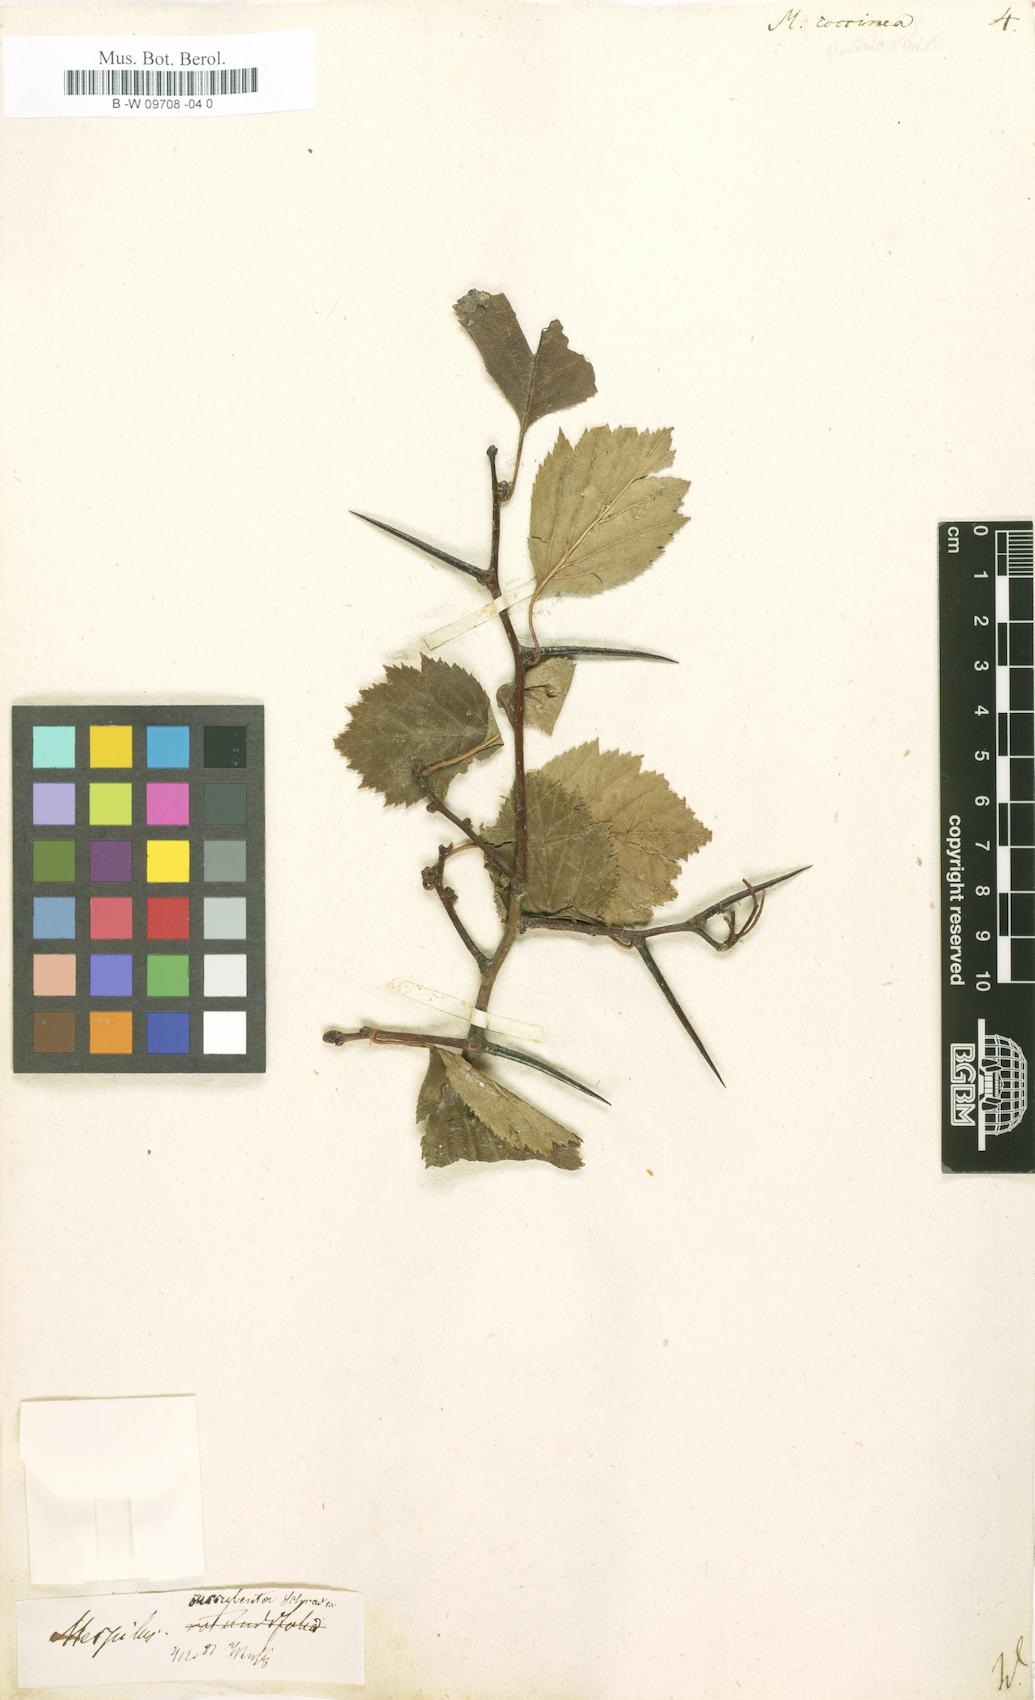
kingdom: Plantae
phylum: Tracheophyta
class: Magnoliopsida
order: Rosales
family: Rosaceae
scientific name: Rosaceae
